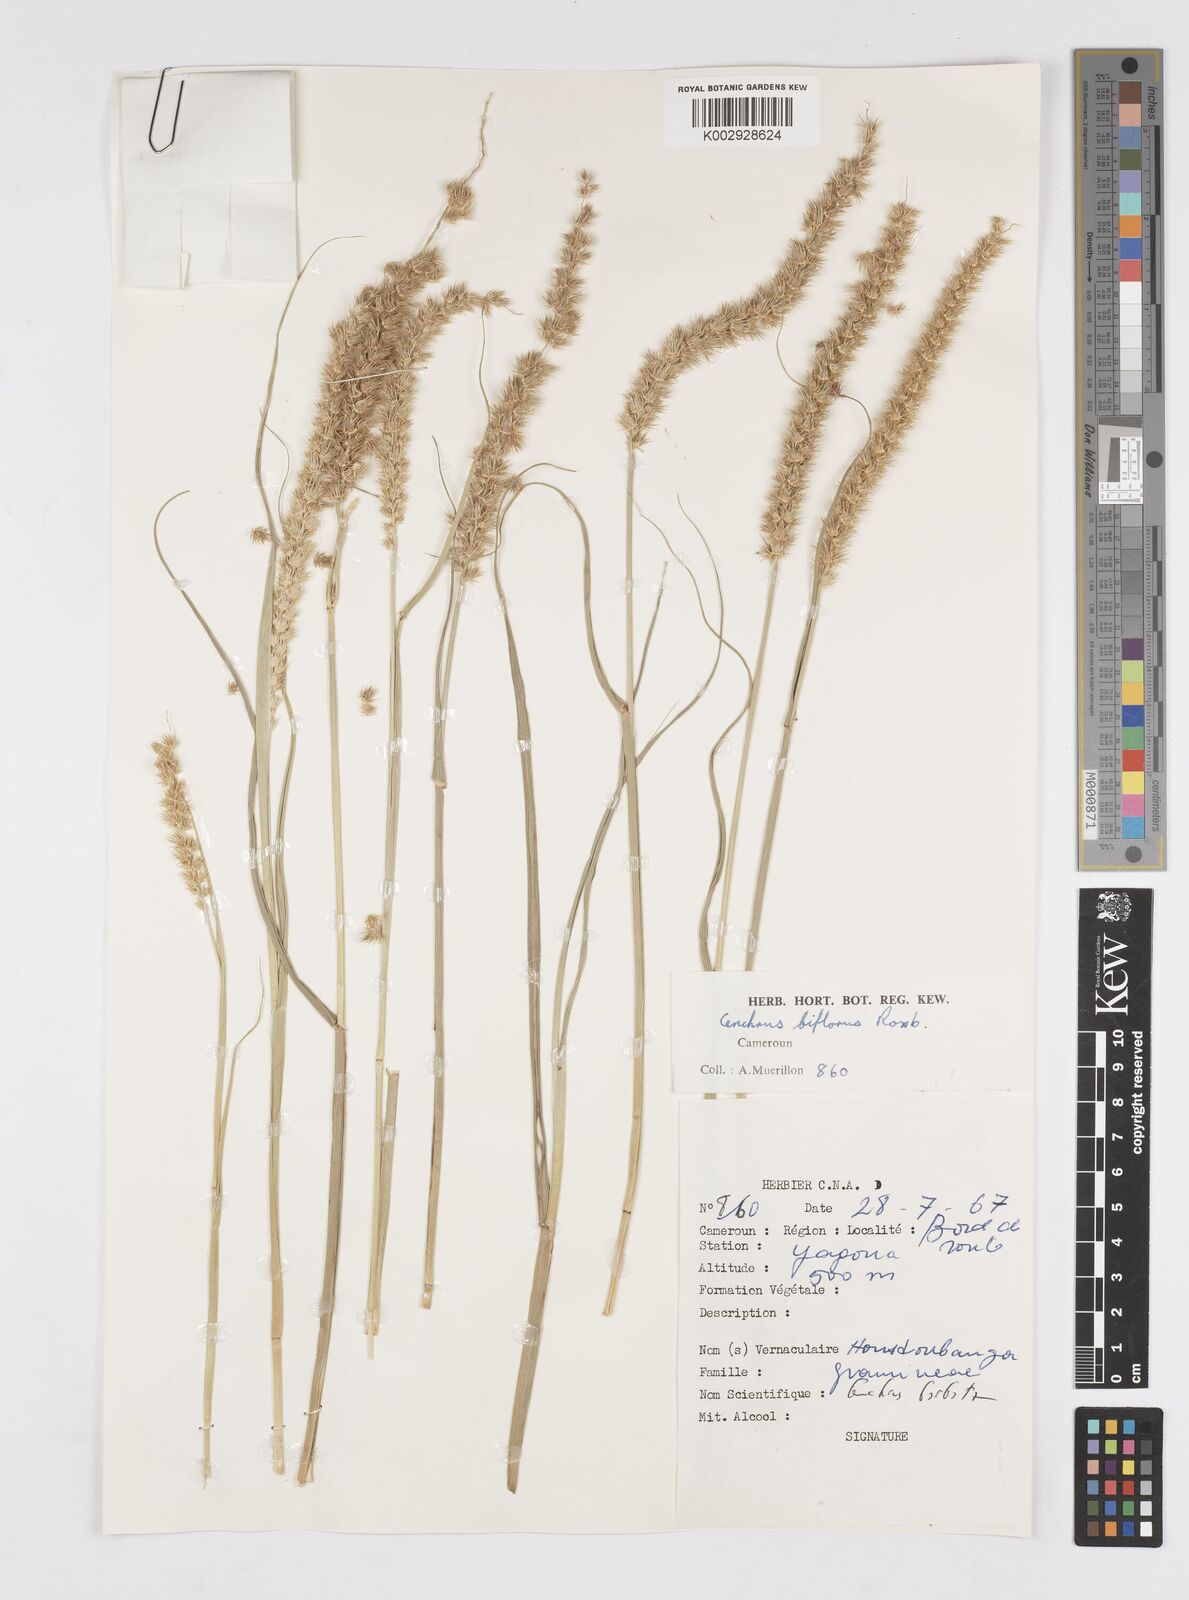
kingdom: Plantae
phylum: Tracheophyta
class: Liliopsida
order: Poales
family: Poaceae
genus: Cenchrus
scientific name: Cenchrus biflorus
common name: Indian sandbur
